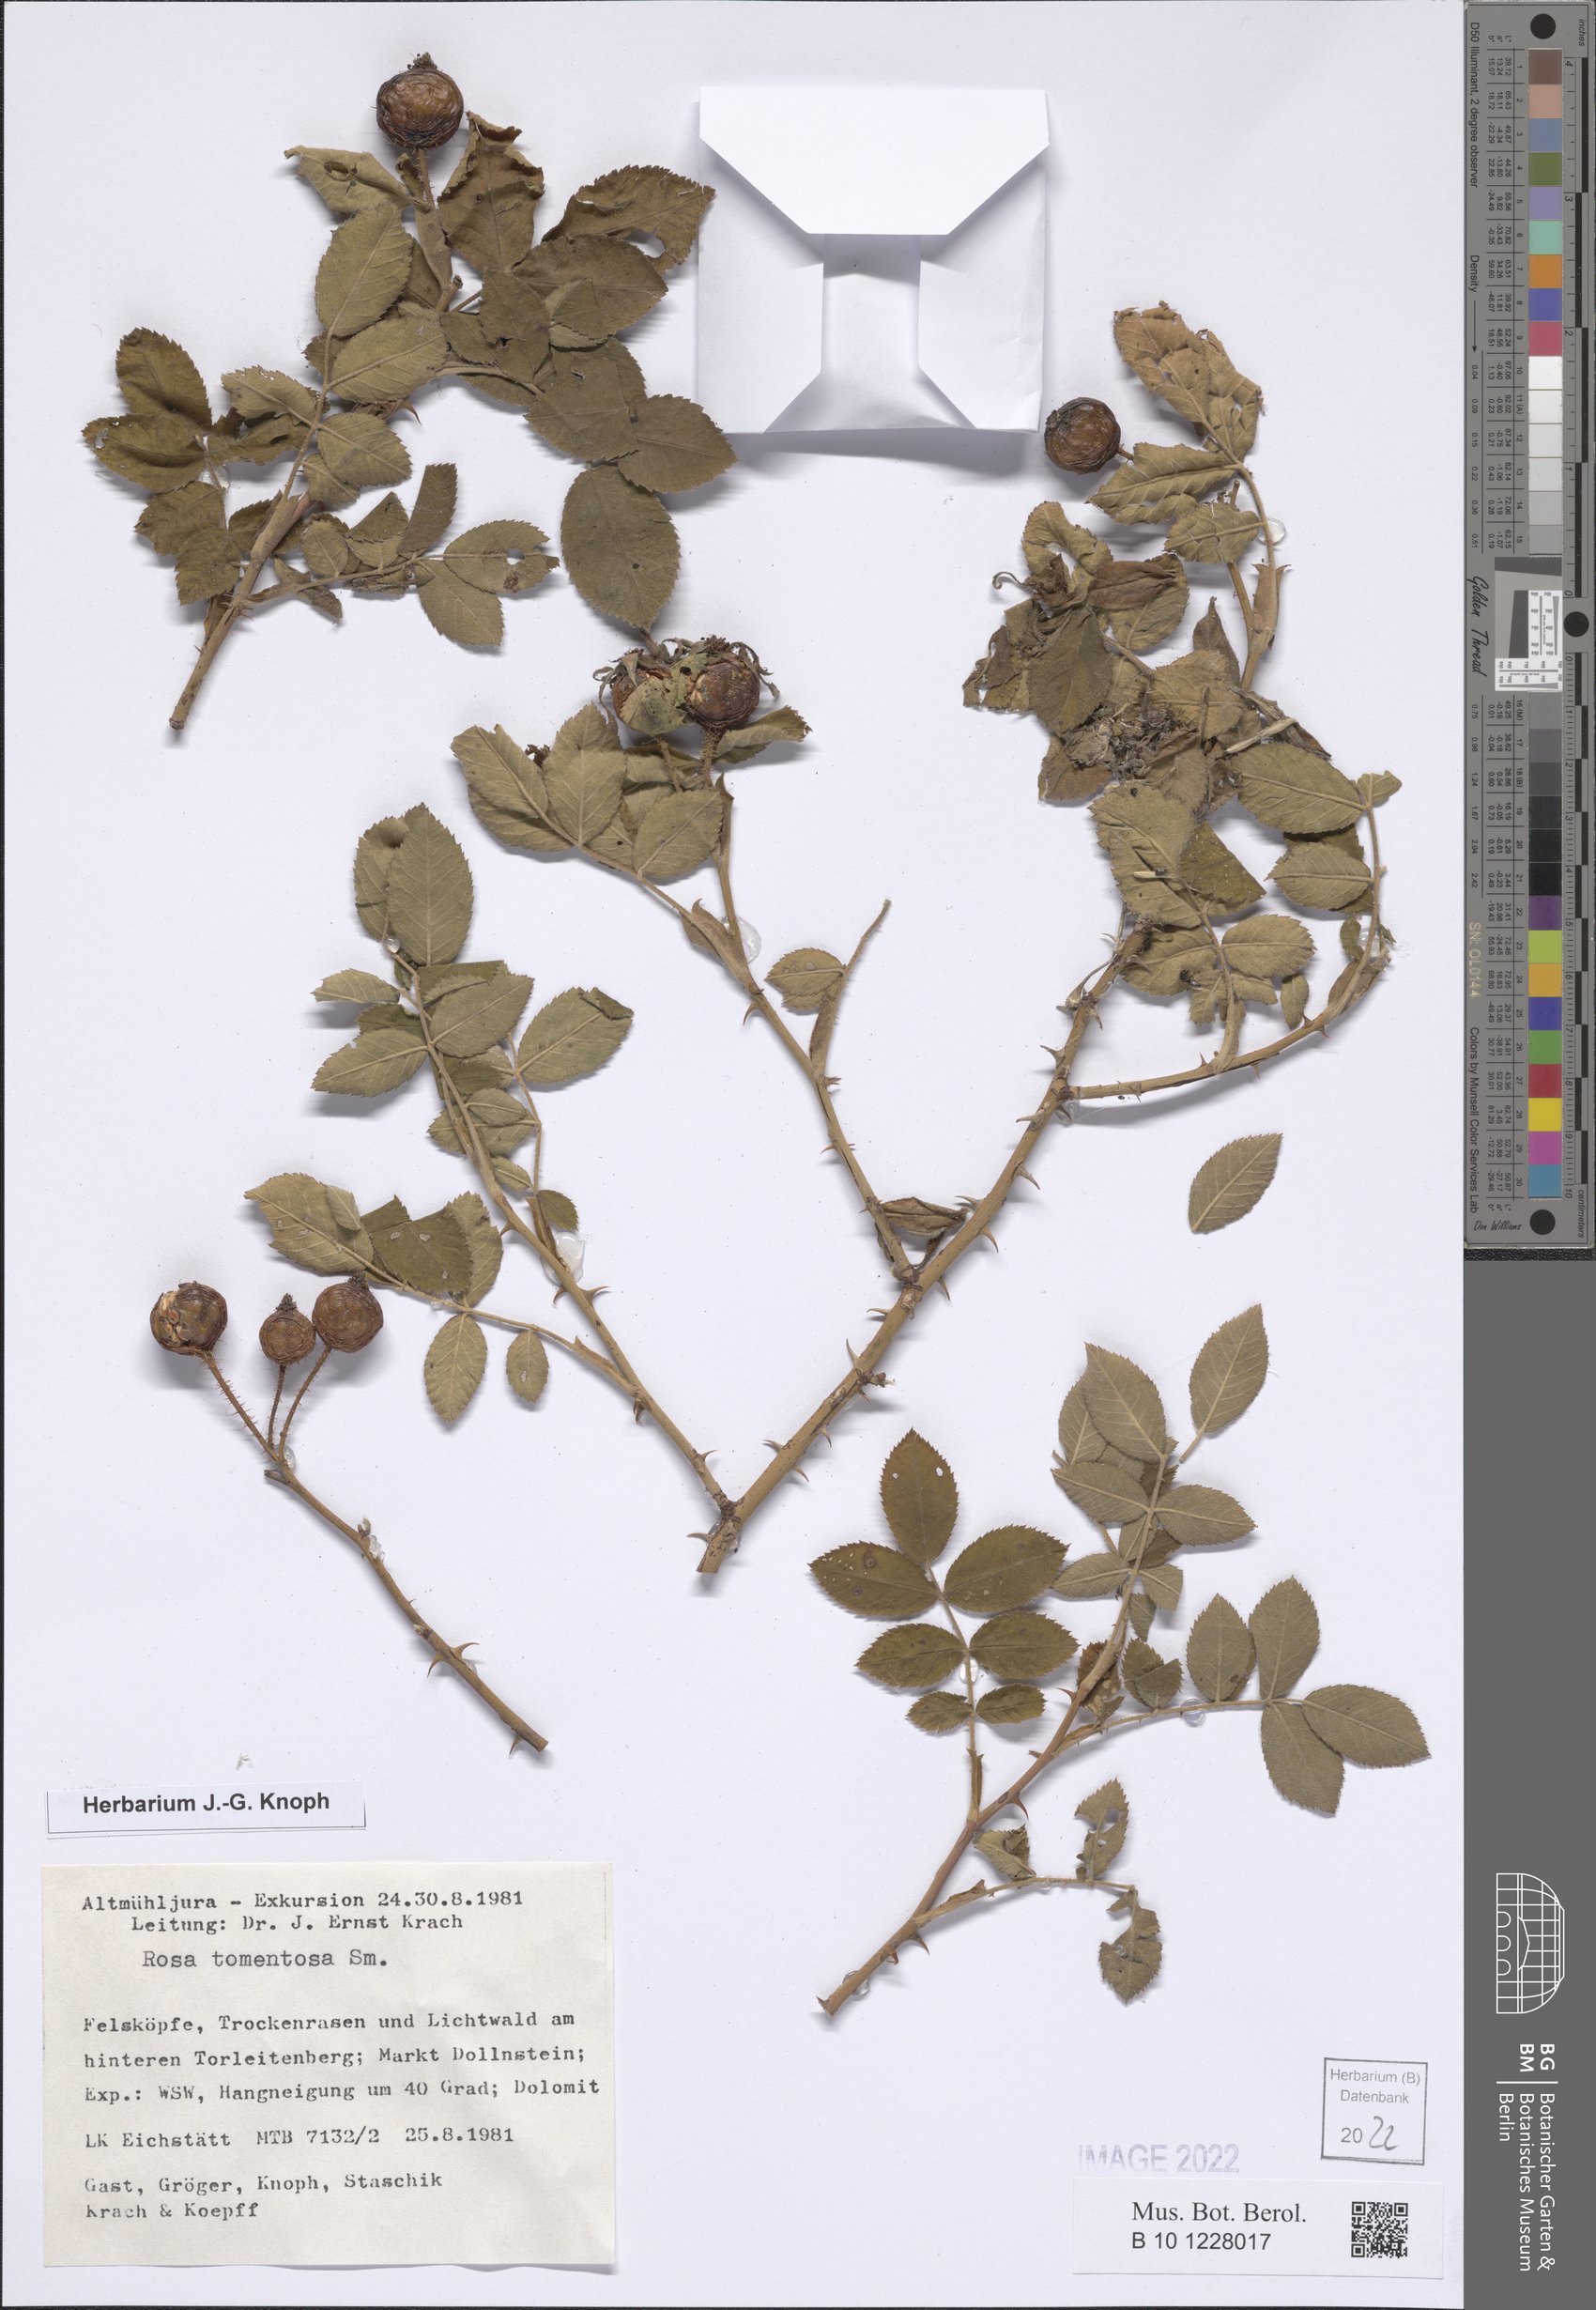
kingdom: Plantae
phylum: Tracheophyta
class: Magnoliopsida
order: Rosales
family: Rosaceae
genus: Rosa
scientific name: Rosa tomentosa
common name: Downy rose
